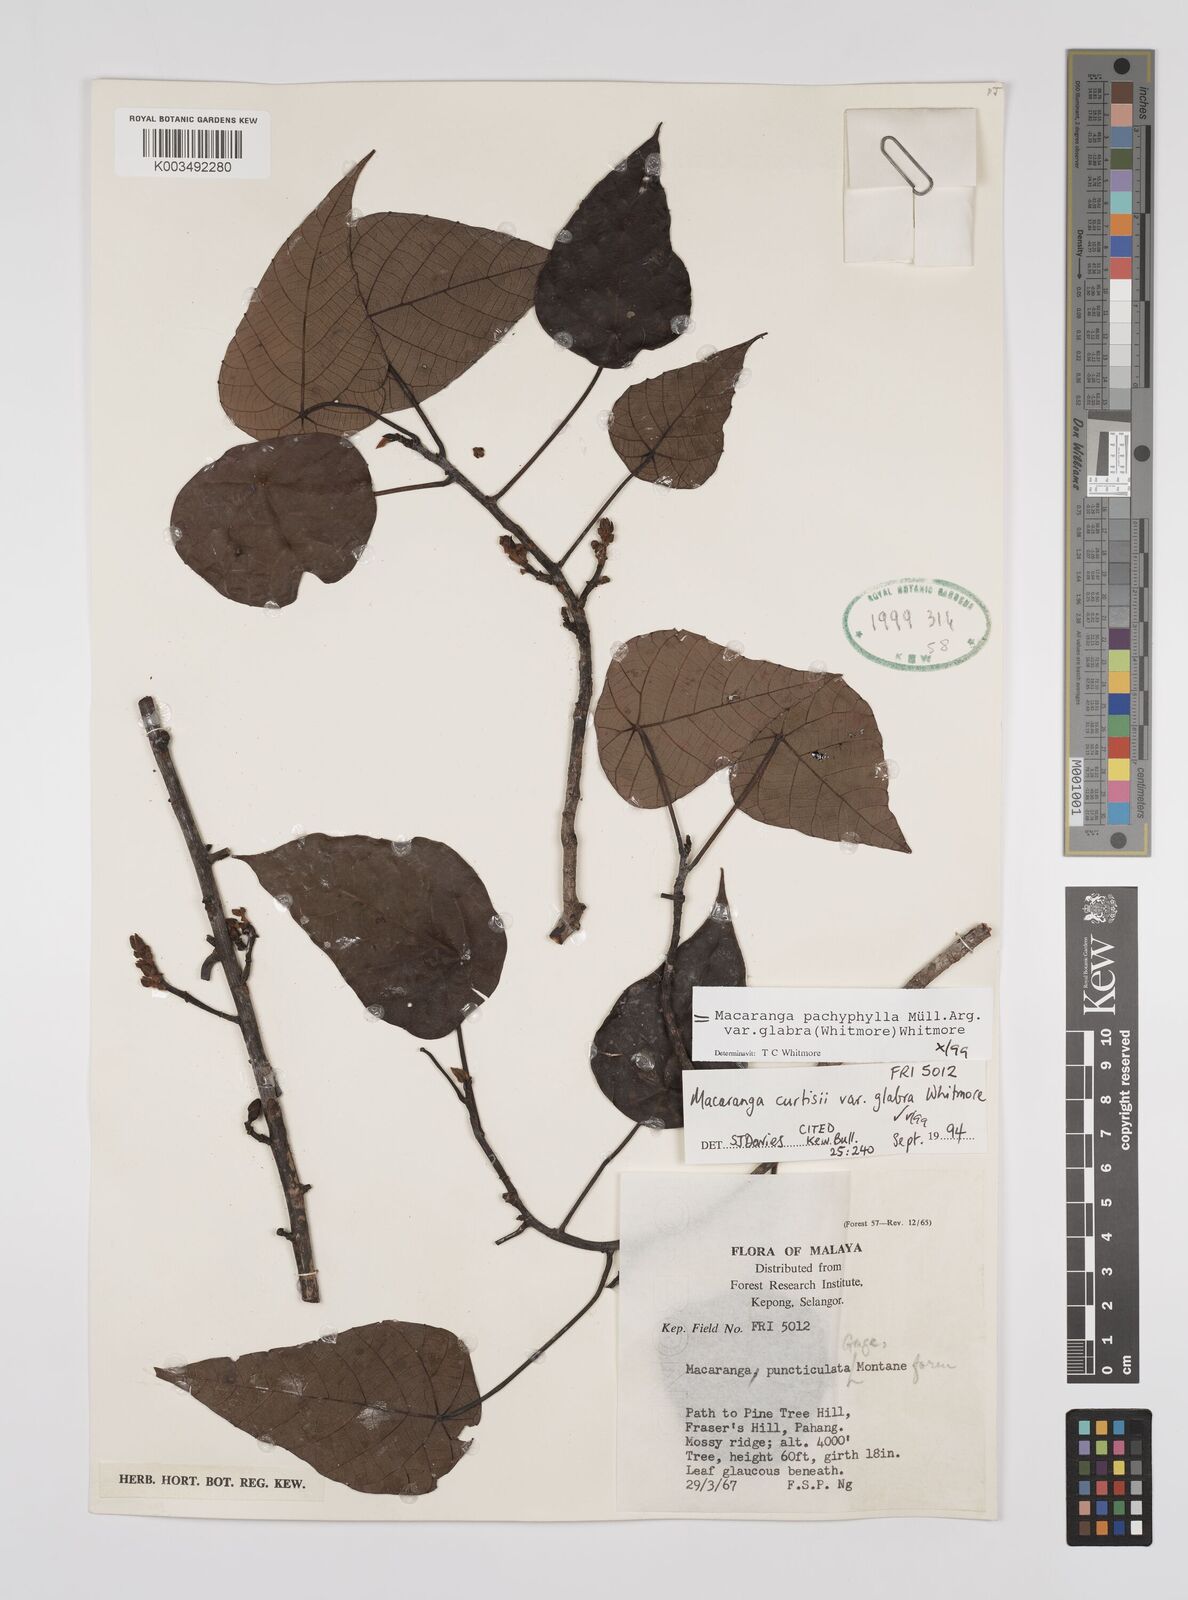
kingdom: Plantae
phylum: Tracheophyta
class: Magnoliopsida
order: Malpighiales
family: Euphorbiaceae
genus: Macaranga
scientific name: Macaranga pachyphylla
